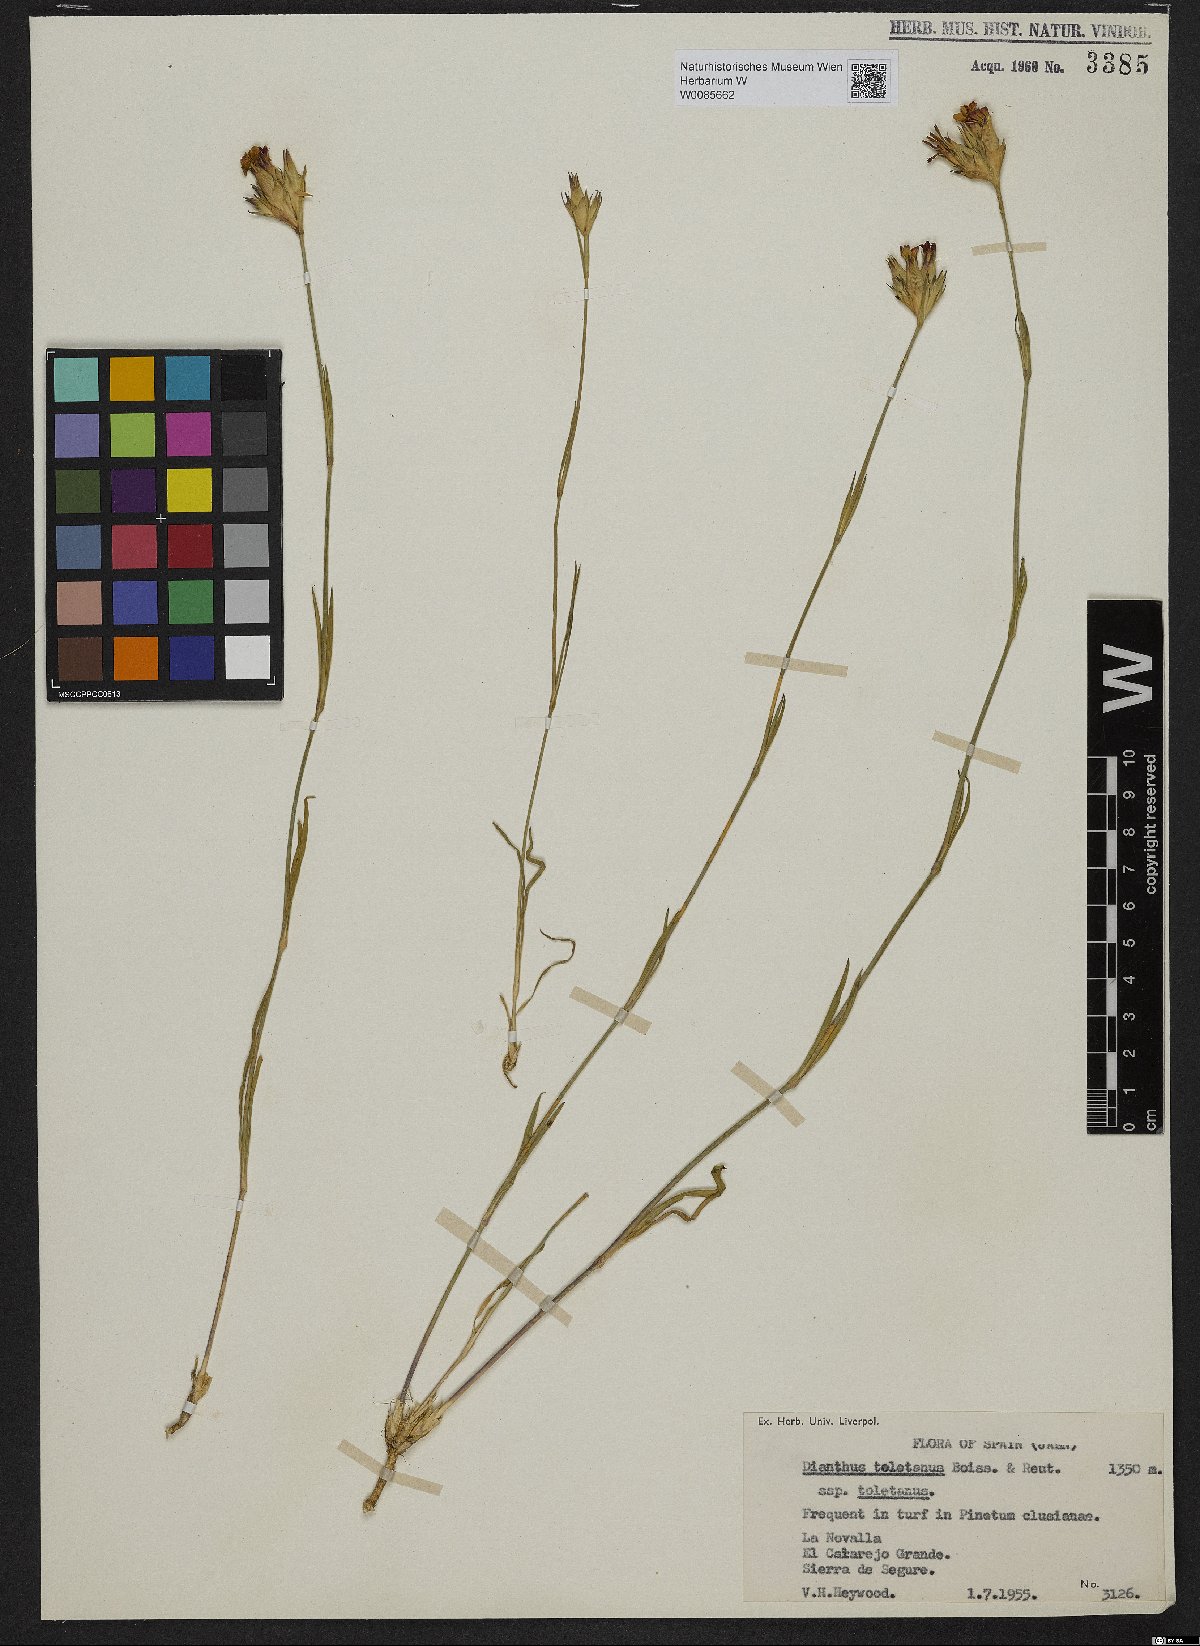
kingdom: Plantae
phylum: Tracheophyta
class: Magnoliopsida
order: Caryophyllales
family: Caryophyllaceae
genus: Dianthus
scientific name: Dianthus toletanus
